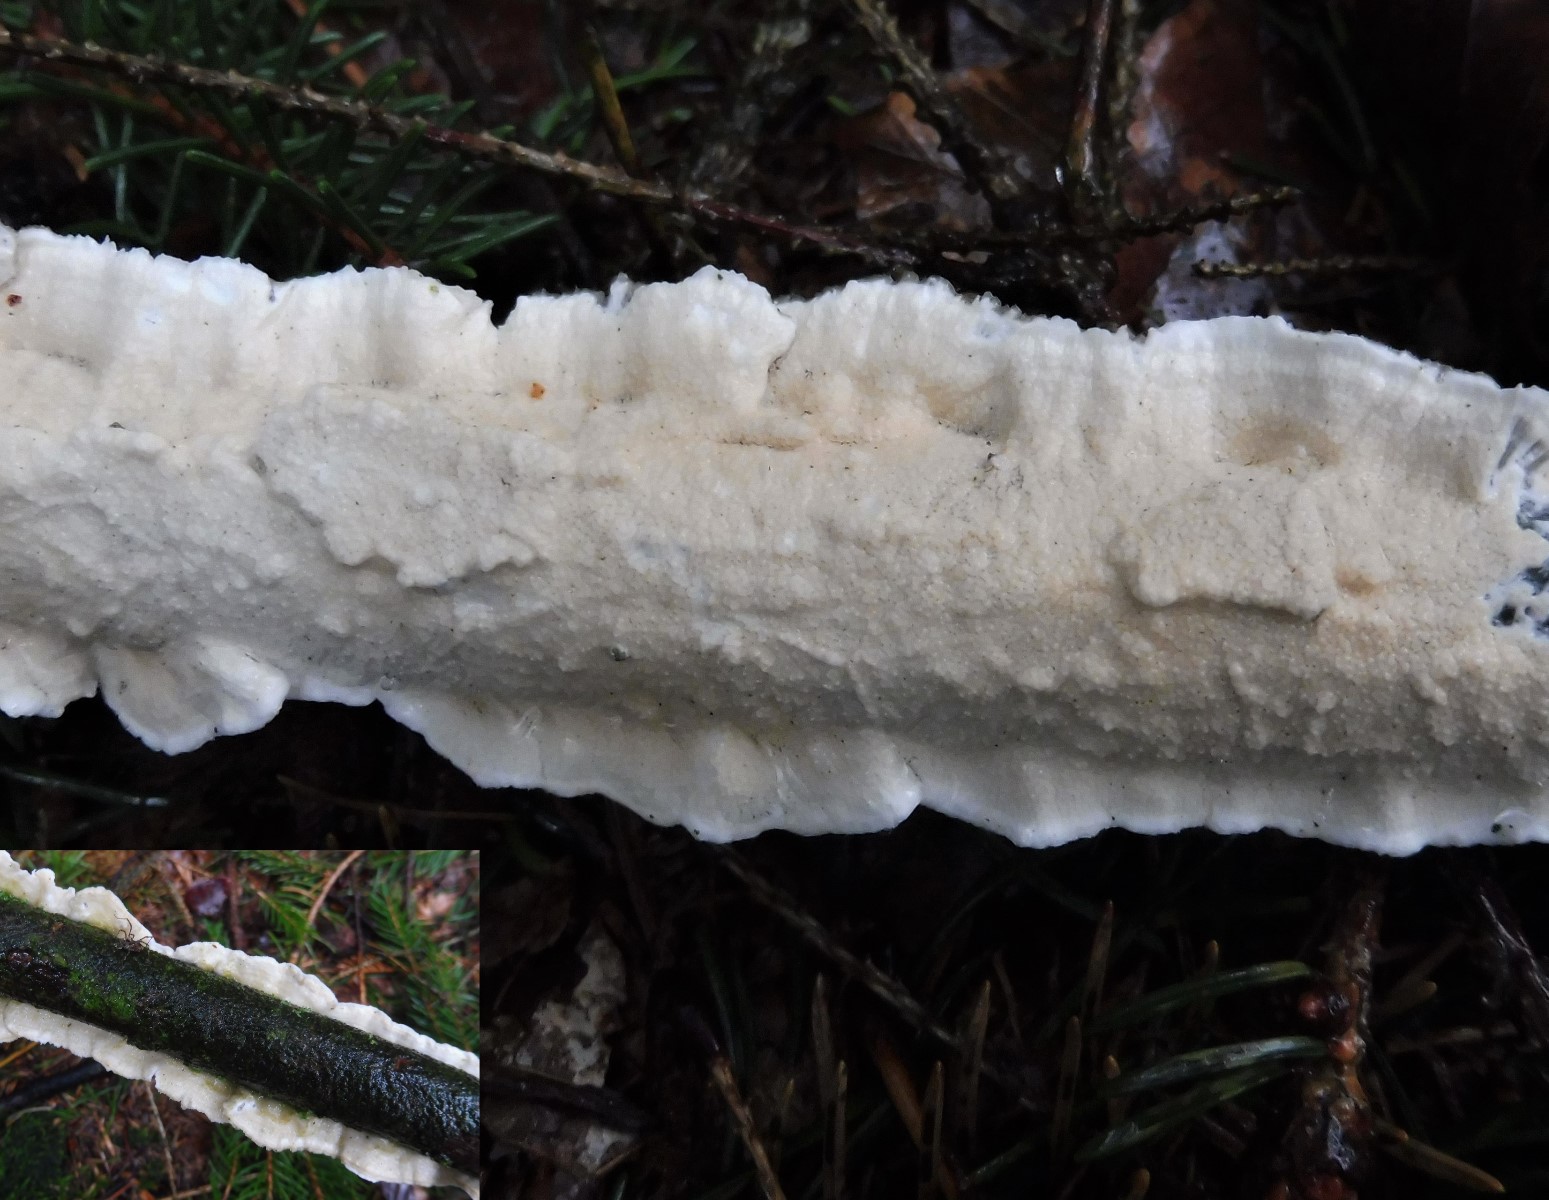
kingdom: Fungi
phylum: Basidiomycota
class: Agaricomycetes
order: Polyporales
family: Irpicaceae
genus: Byssomerulius
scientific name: Byssomerulius corium
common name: læder-åresvamp
